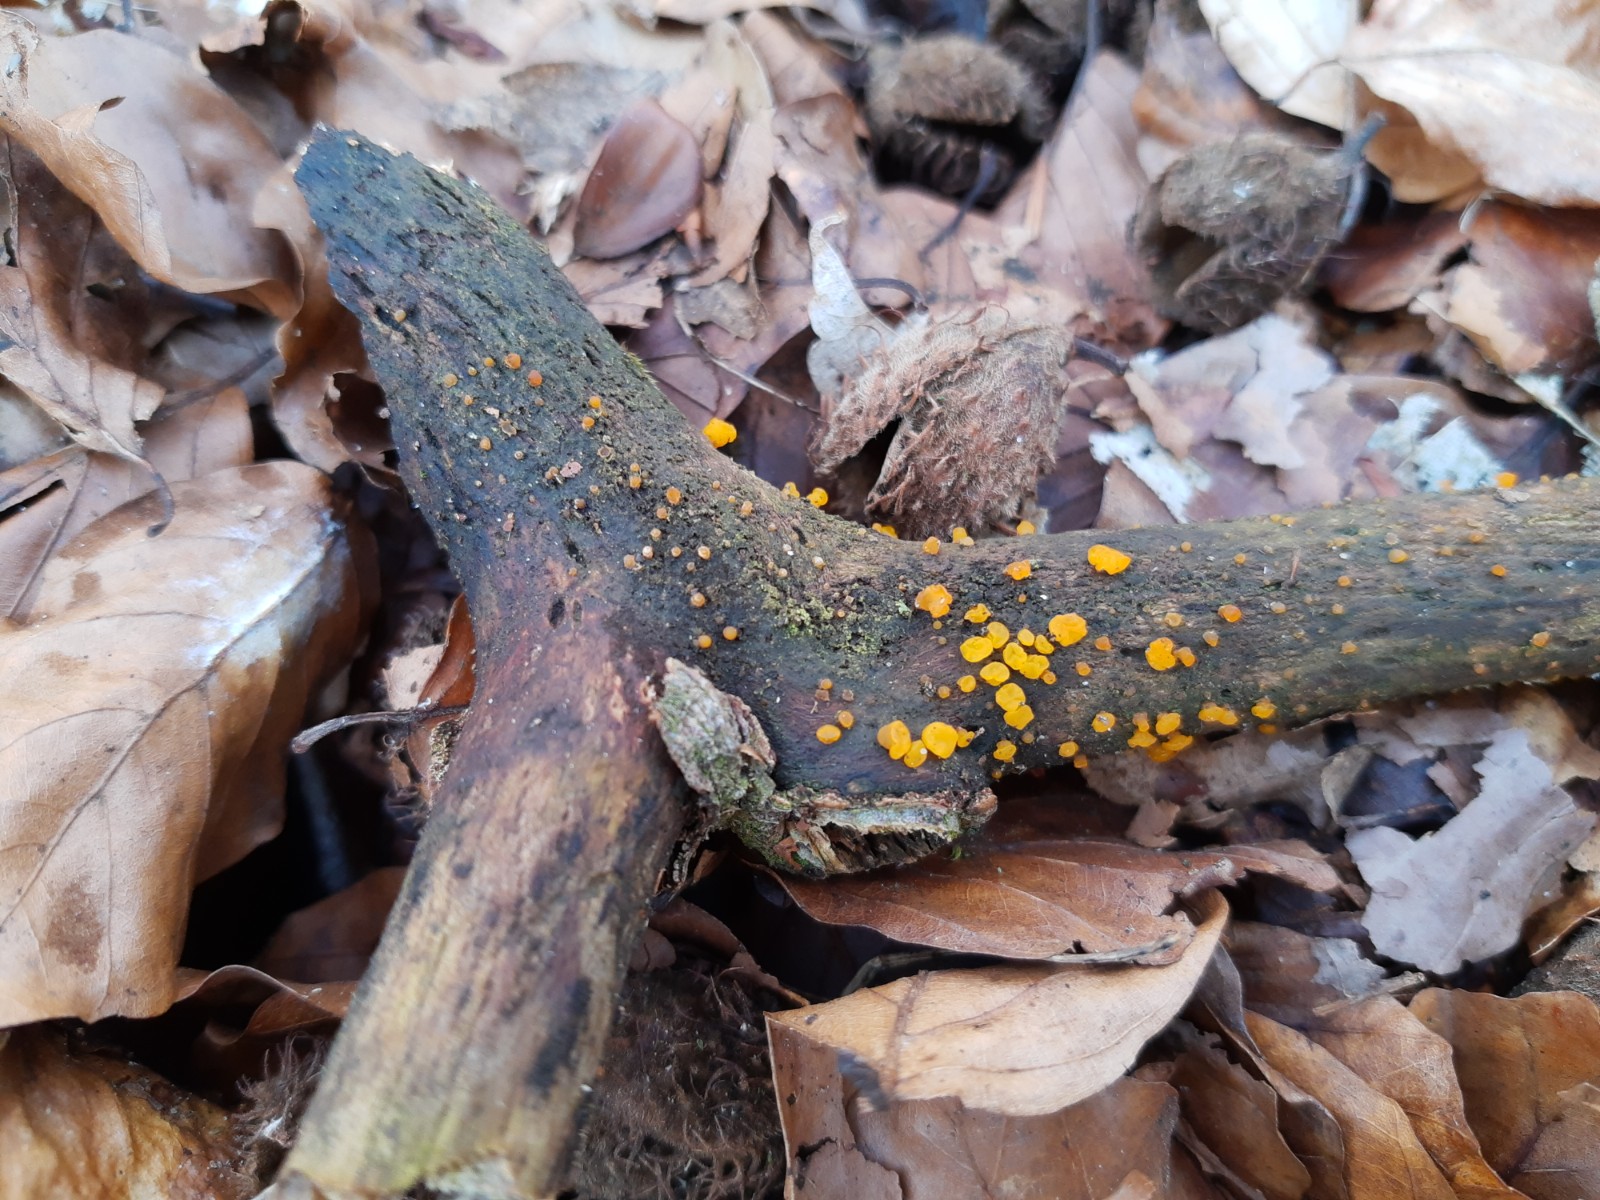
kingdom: Fungi
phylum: Basidiomycota
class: Dacrymycetes
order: Dacrymycetales
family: Dacrymycetaceae
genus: Dacrymyces
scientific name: Dacrymyces
